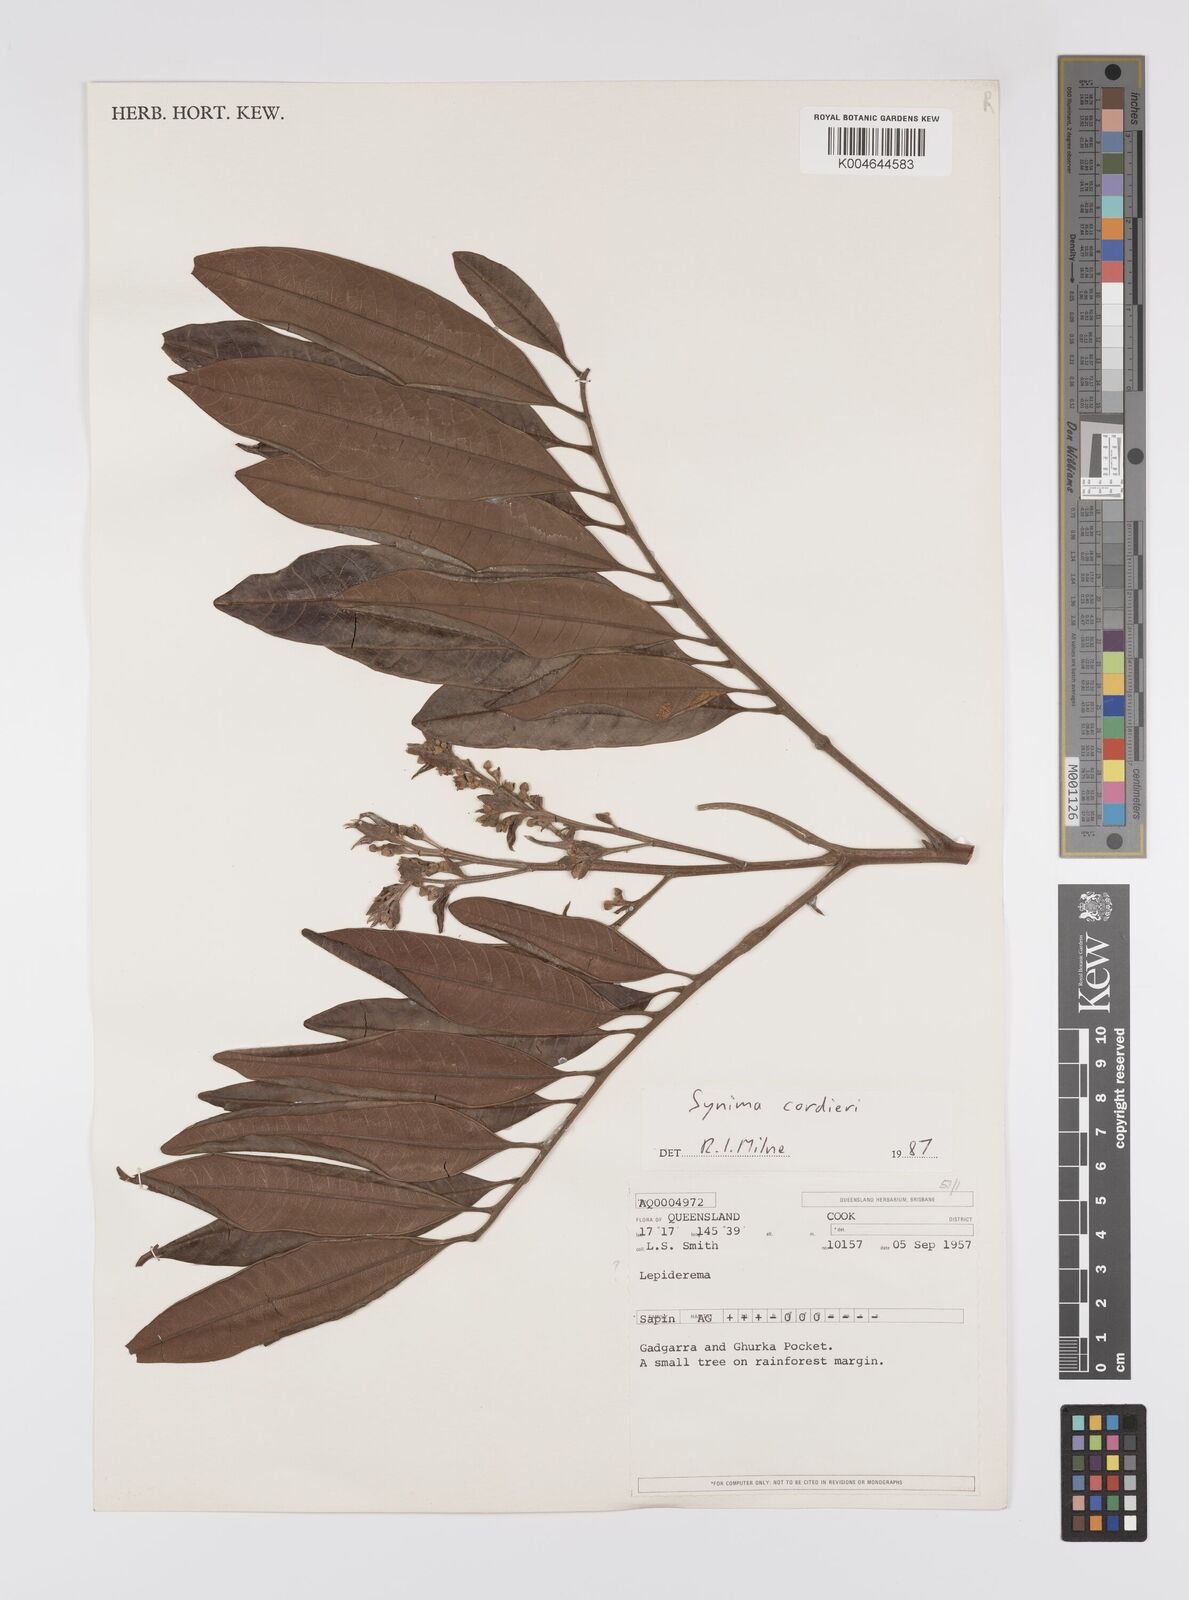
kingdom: Plantae
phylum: Tracheophyta
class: Magnoliopsida
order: Sapindales
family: Sapindaceae
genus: Synima
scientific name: Synima
